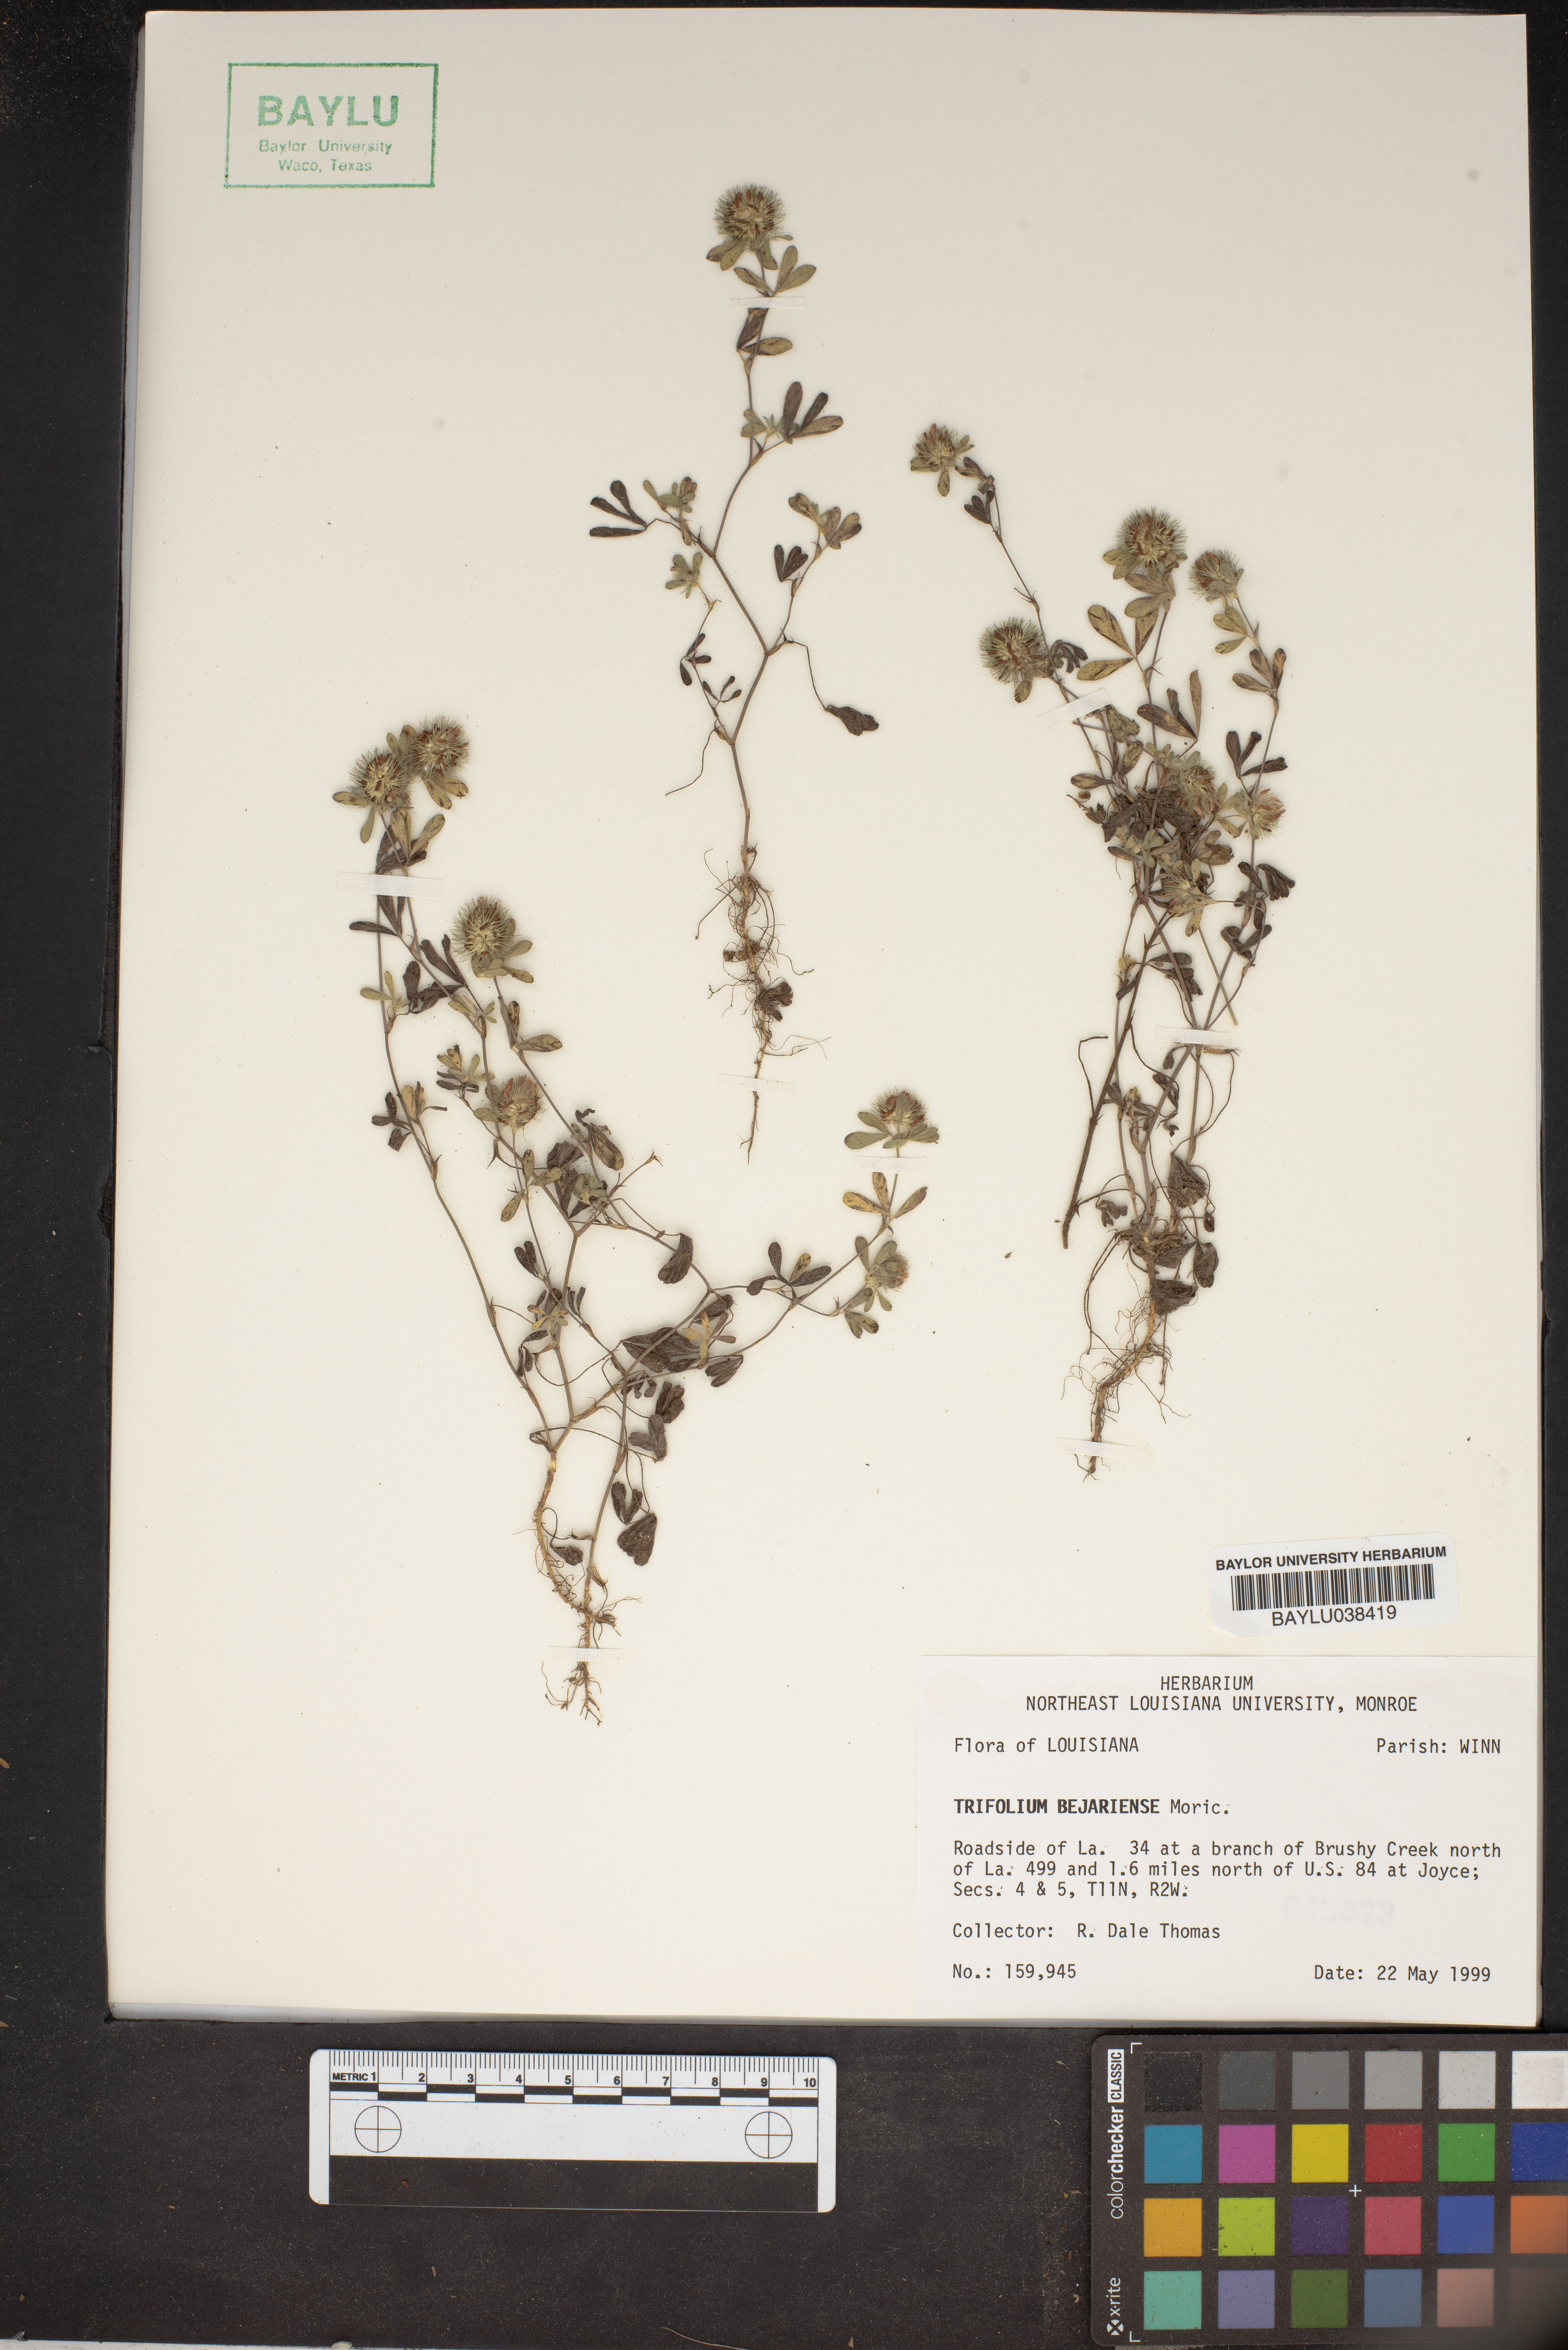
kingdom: Plantae
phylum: Tracheophyta
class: Magnoliopsida
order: Fabales
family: Fabaceae
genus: Trifolium
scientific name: Trifolium bejariense
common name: Bejar clover
